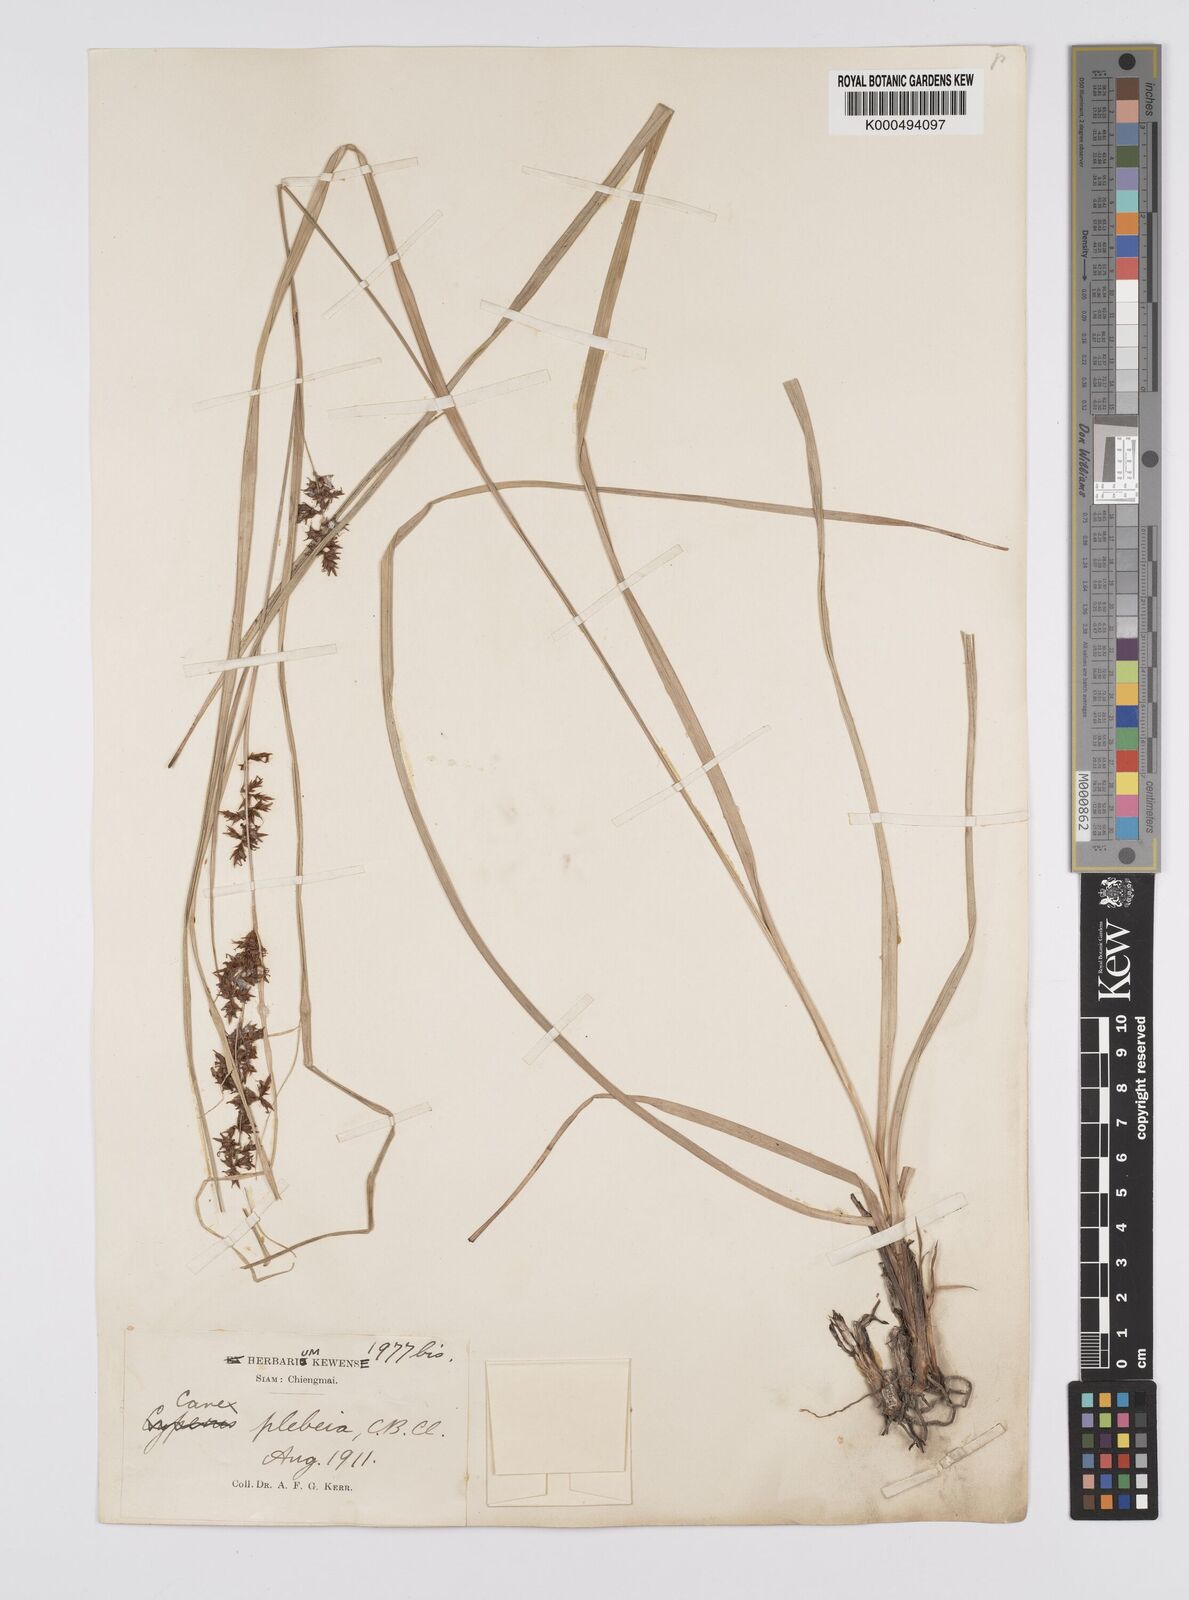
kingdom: Plantae
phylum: Tracheophyta
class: Liliopsida
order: Poales
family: Cyperaceae
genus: Carex
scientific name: Carex continua
